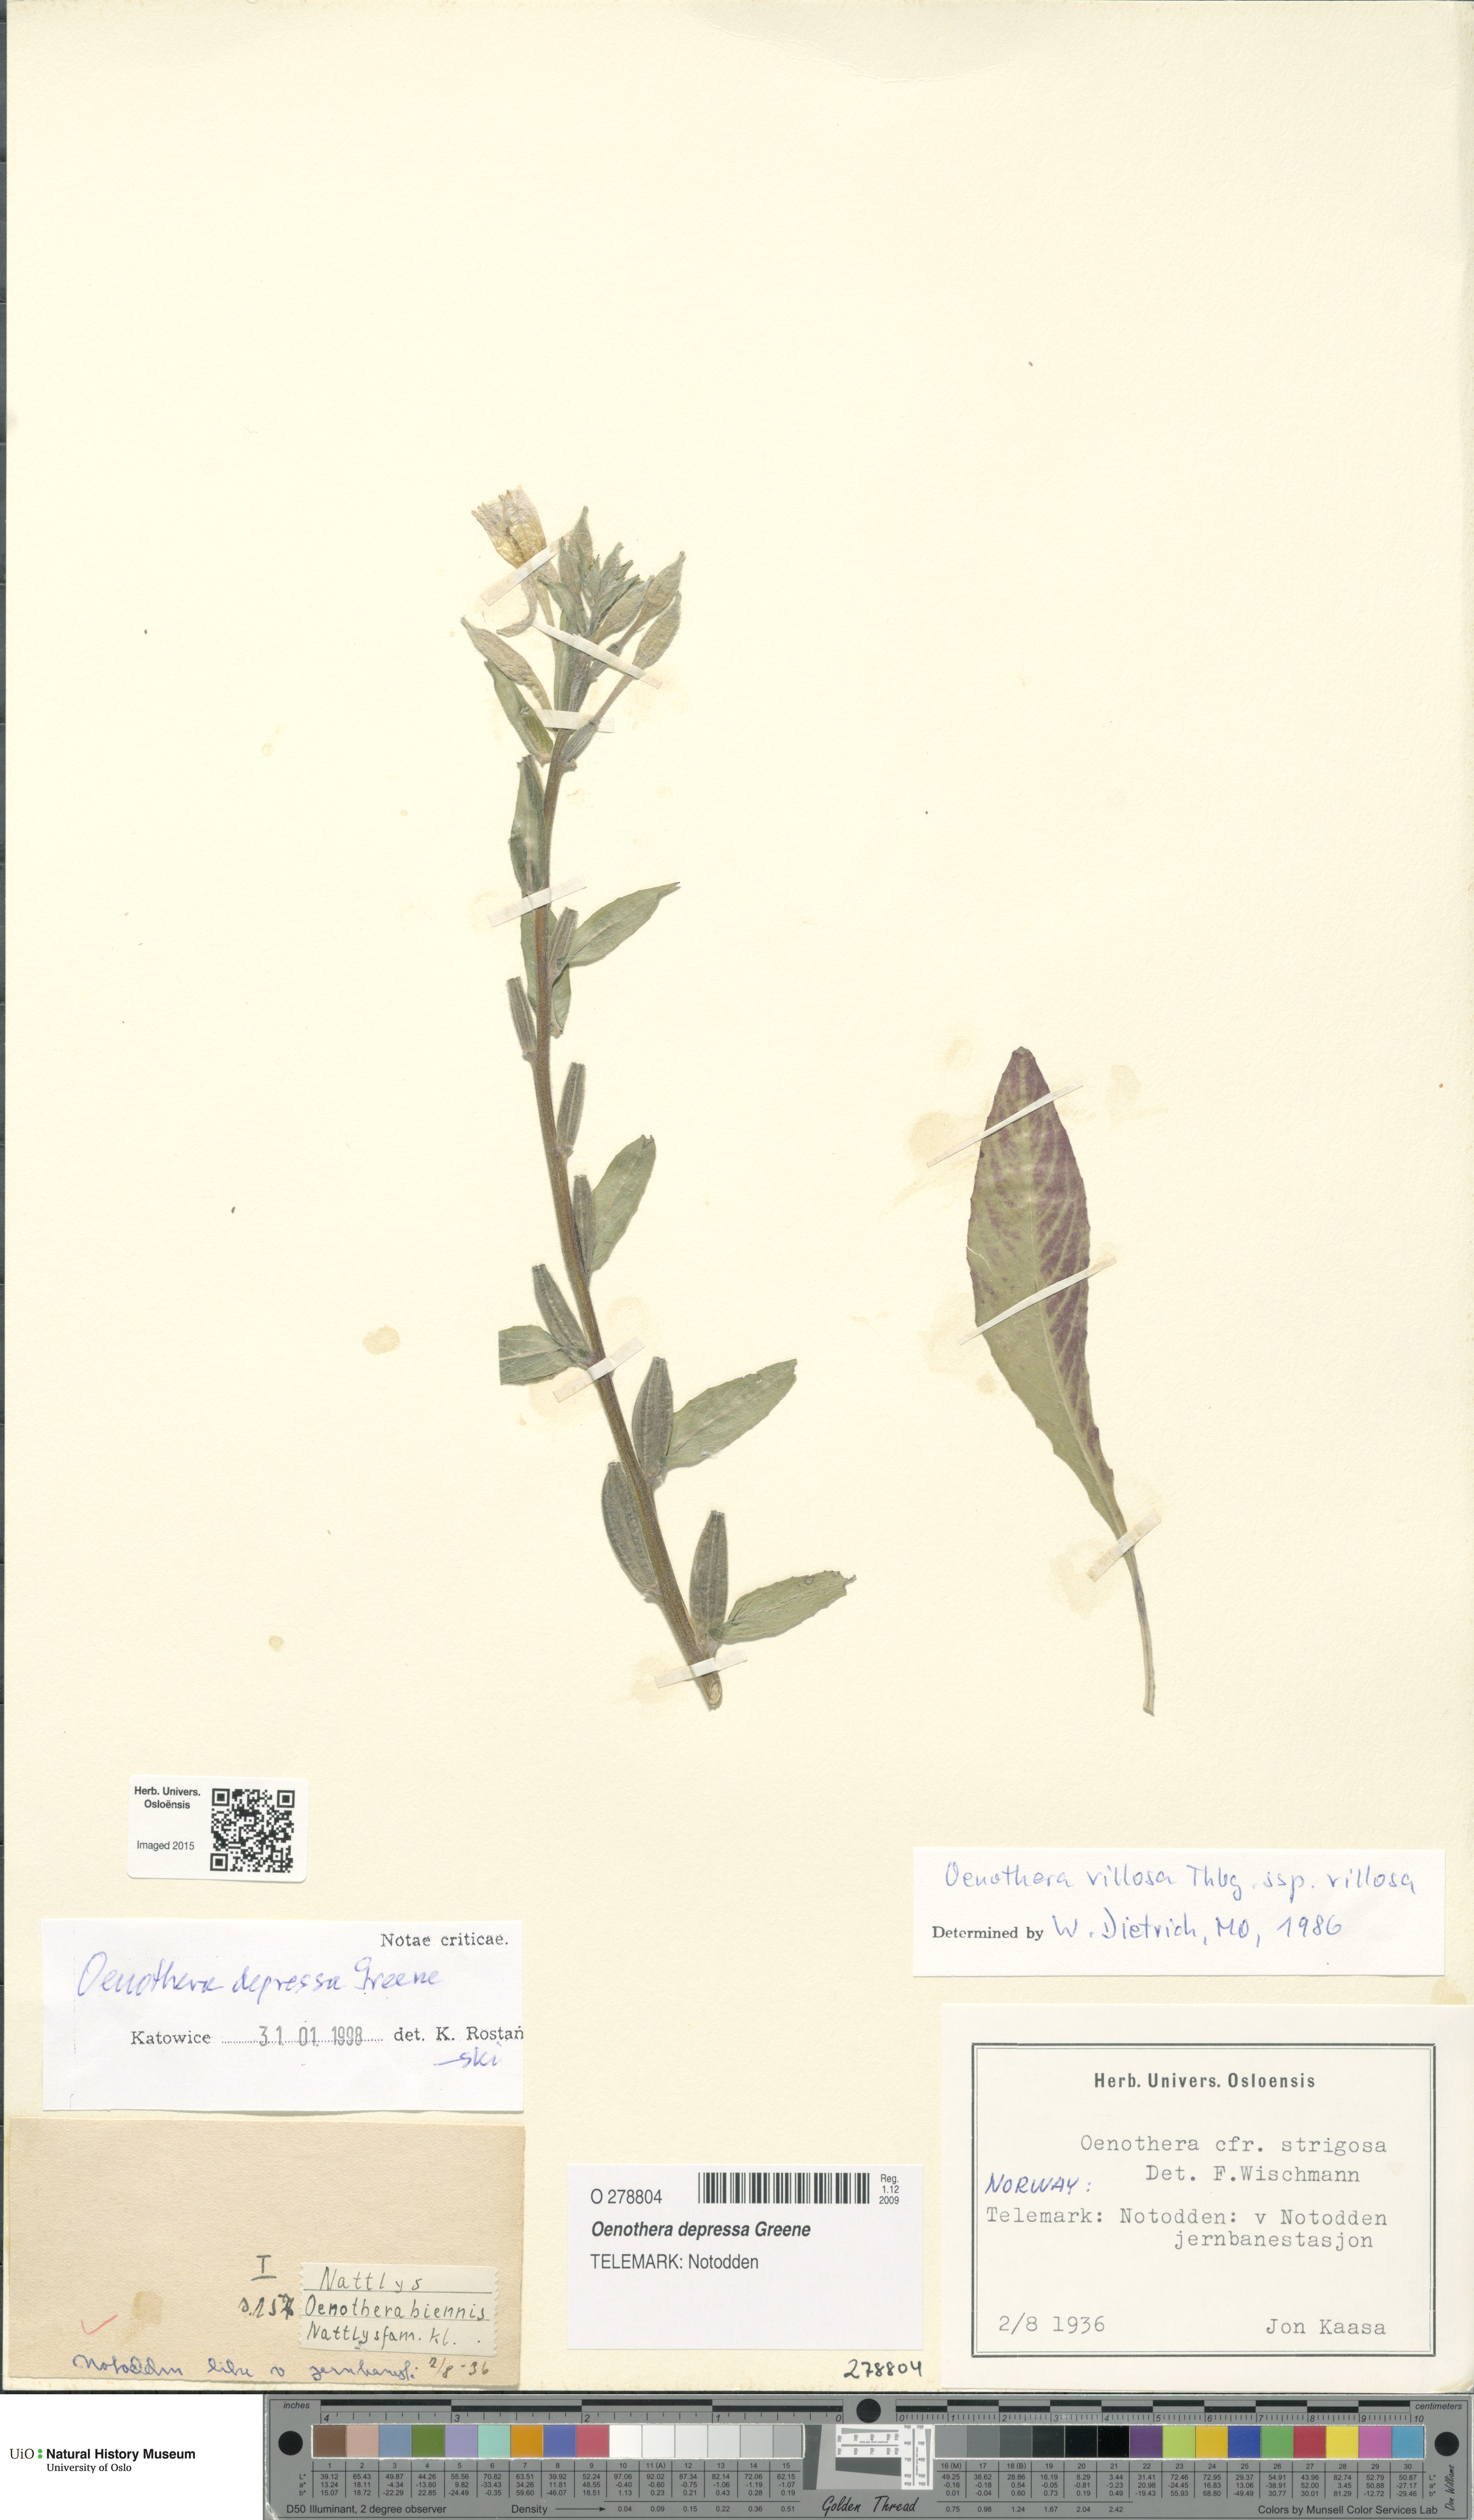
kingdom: Plantae
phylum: Tracheophyta
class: Magnoliopsida
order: Myrtales
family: Onagraceae
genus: Oenothera
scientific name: Oenothera villosa
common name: Hairy evening-primrose
